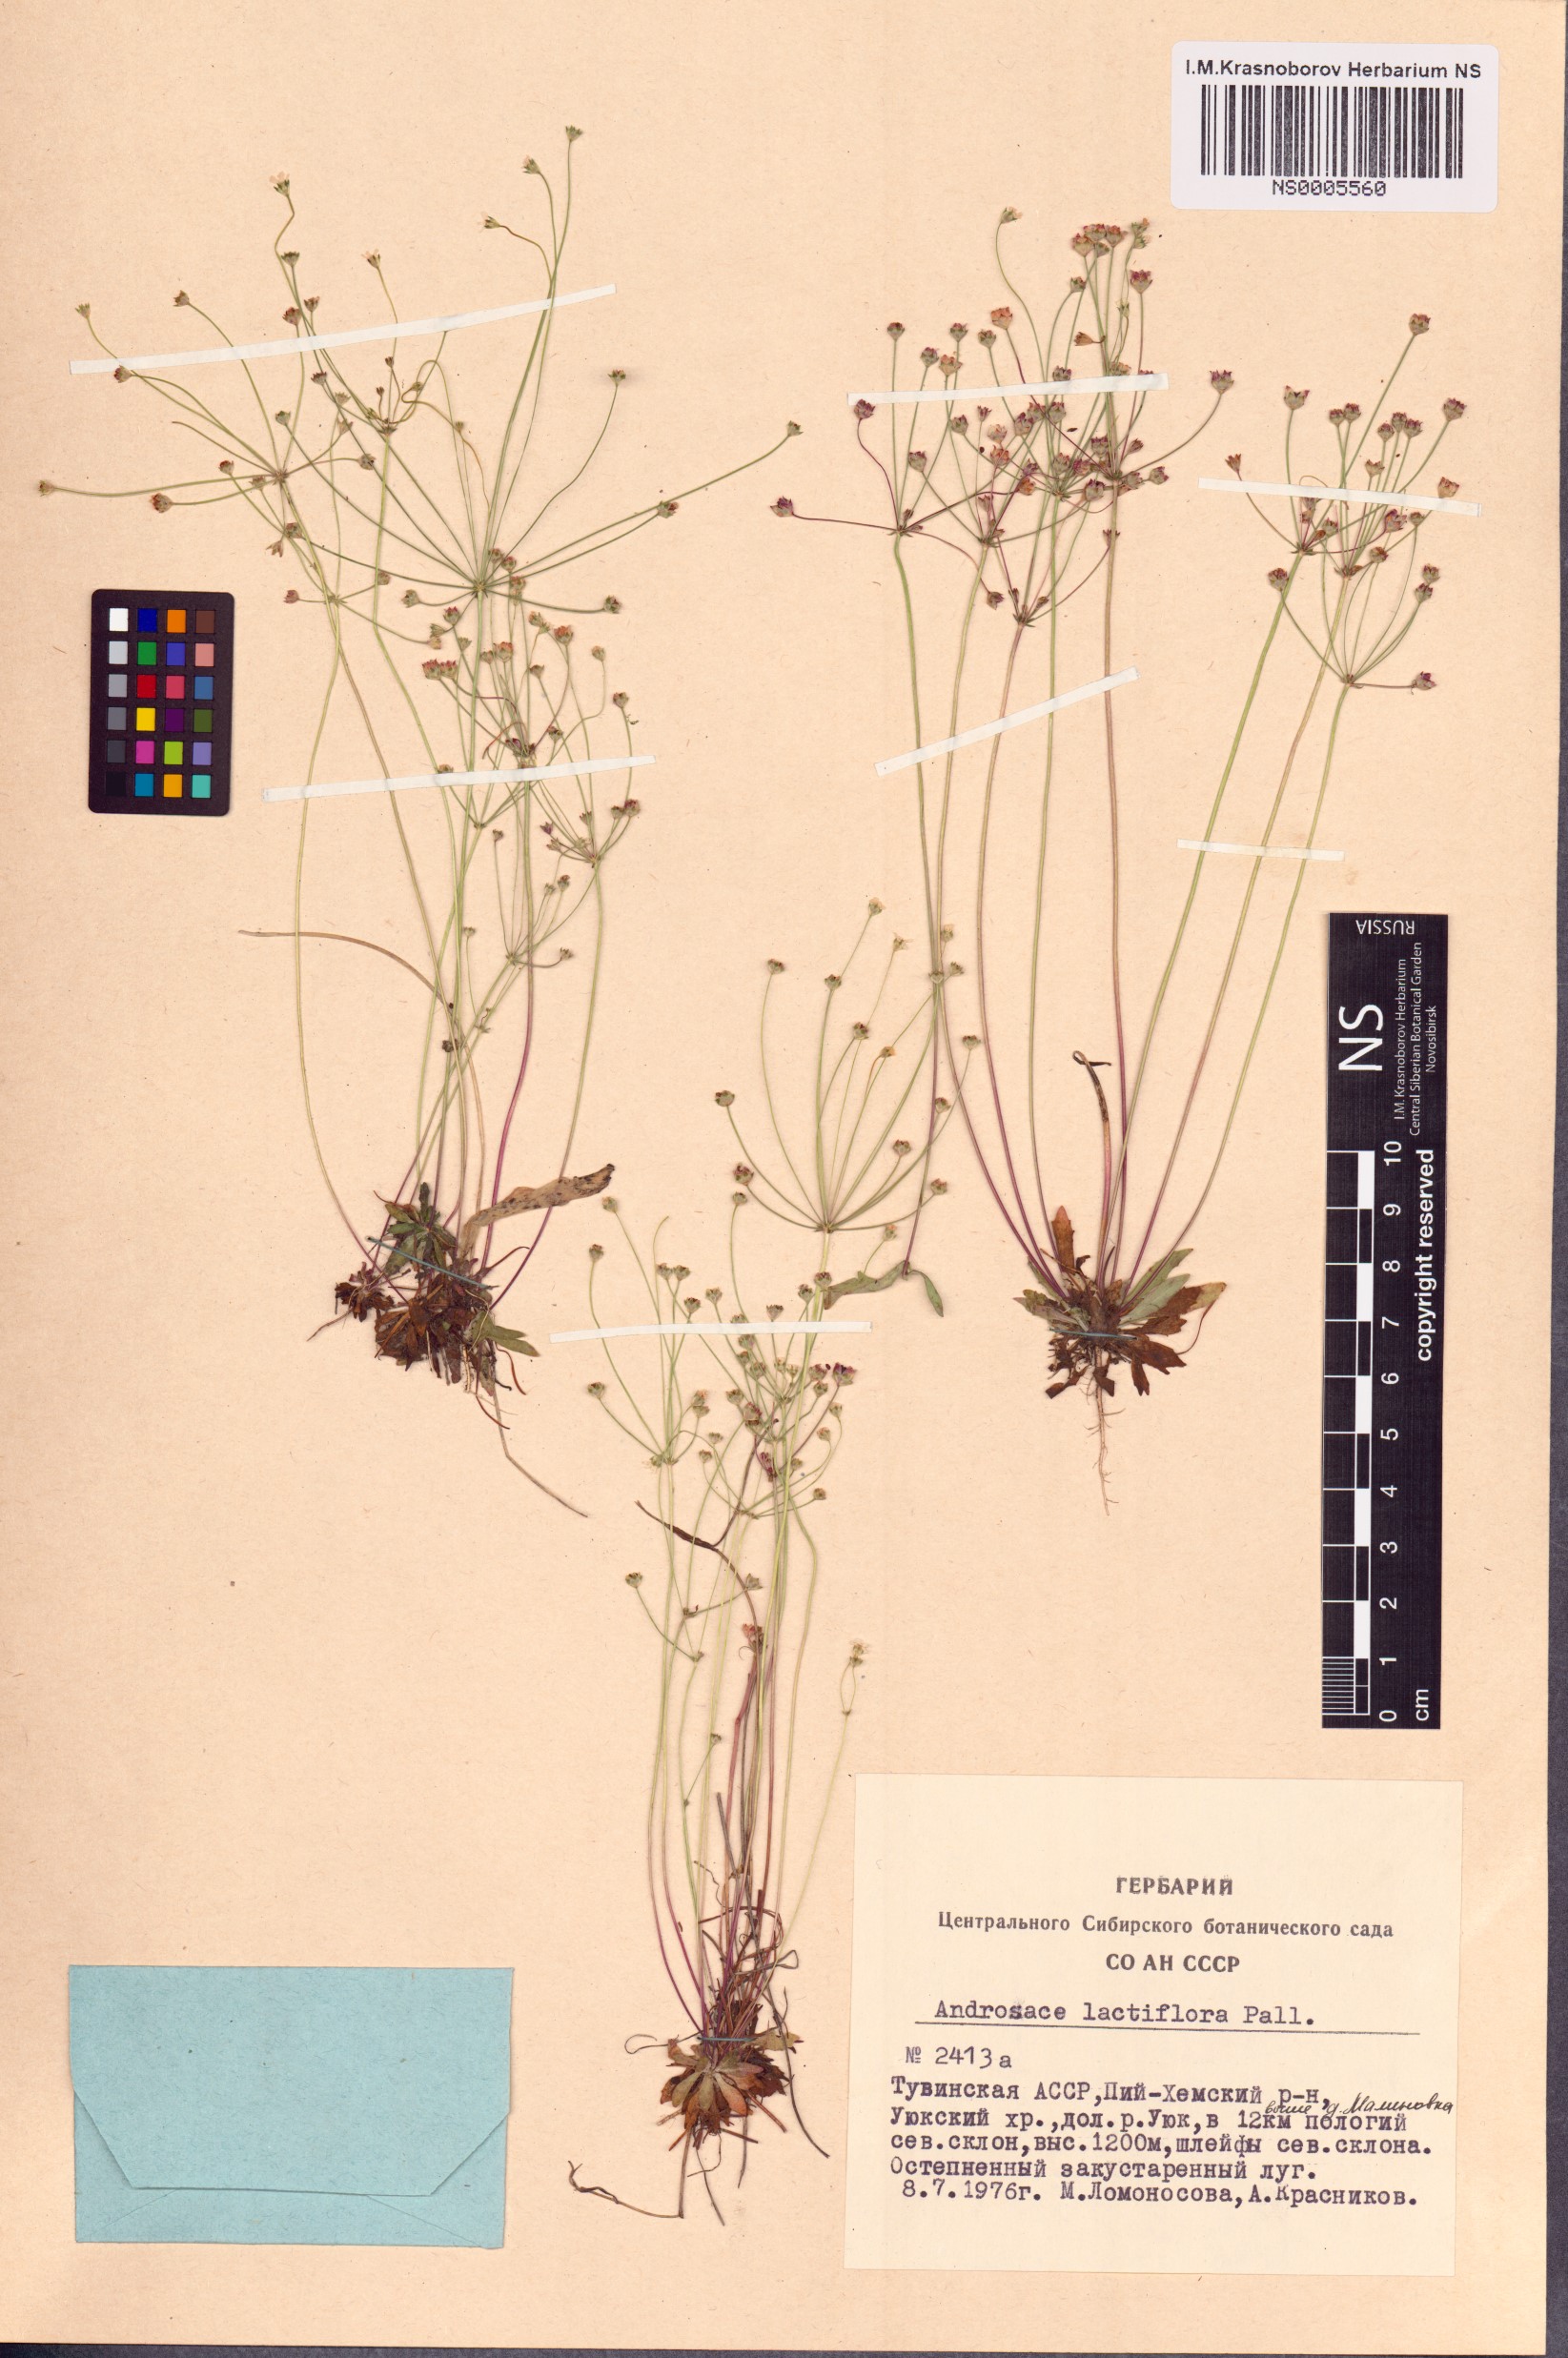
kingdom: Plantae
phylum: Tracheophyta
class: Magnoliopsida
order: Ericales
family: Primulaceae
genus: Androsace
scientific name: Androsace lactiflora
